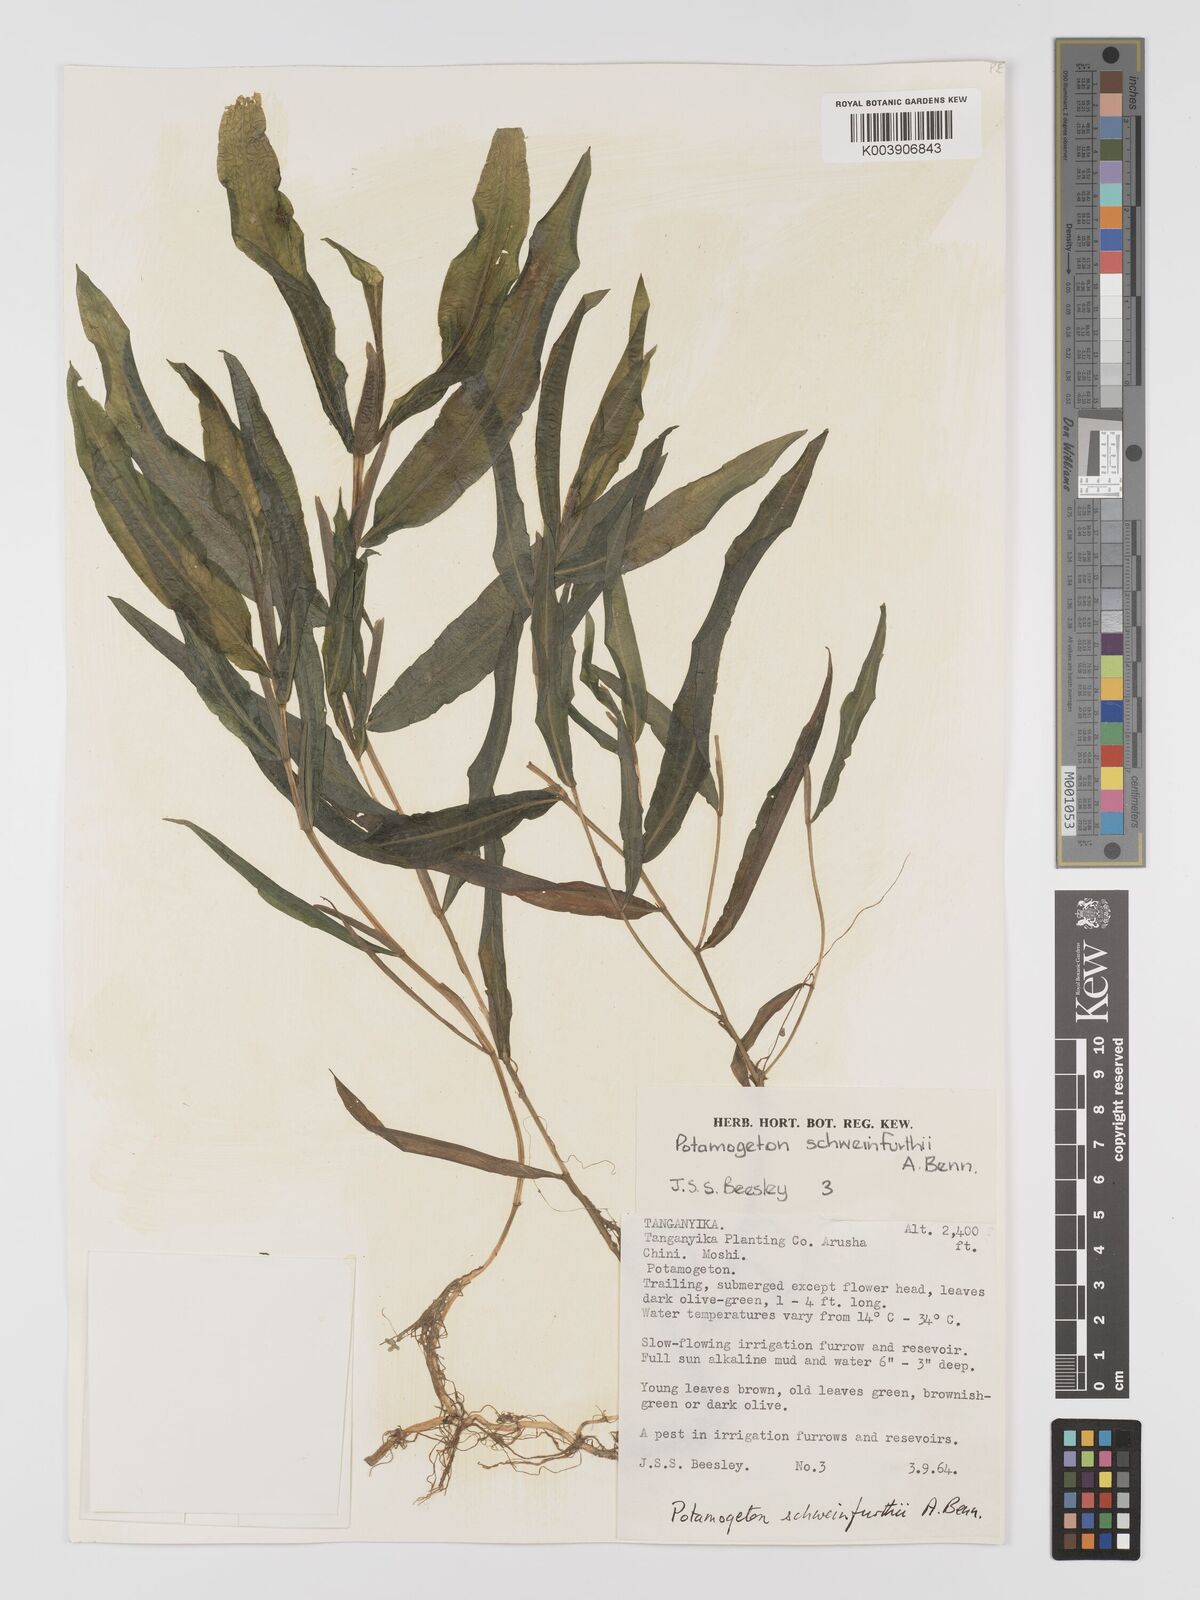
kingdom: Plantae
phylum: Tracheophyta
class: Liliopsida
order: Alismatales
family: Potamogetonaceae
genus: Potamogeton
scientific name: Potamogeton schweinfurthii
